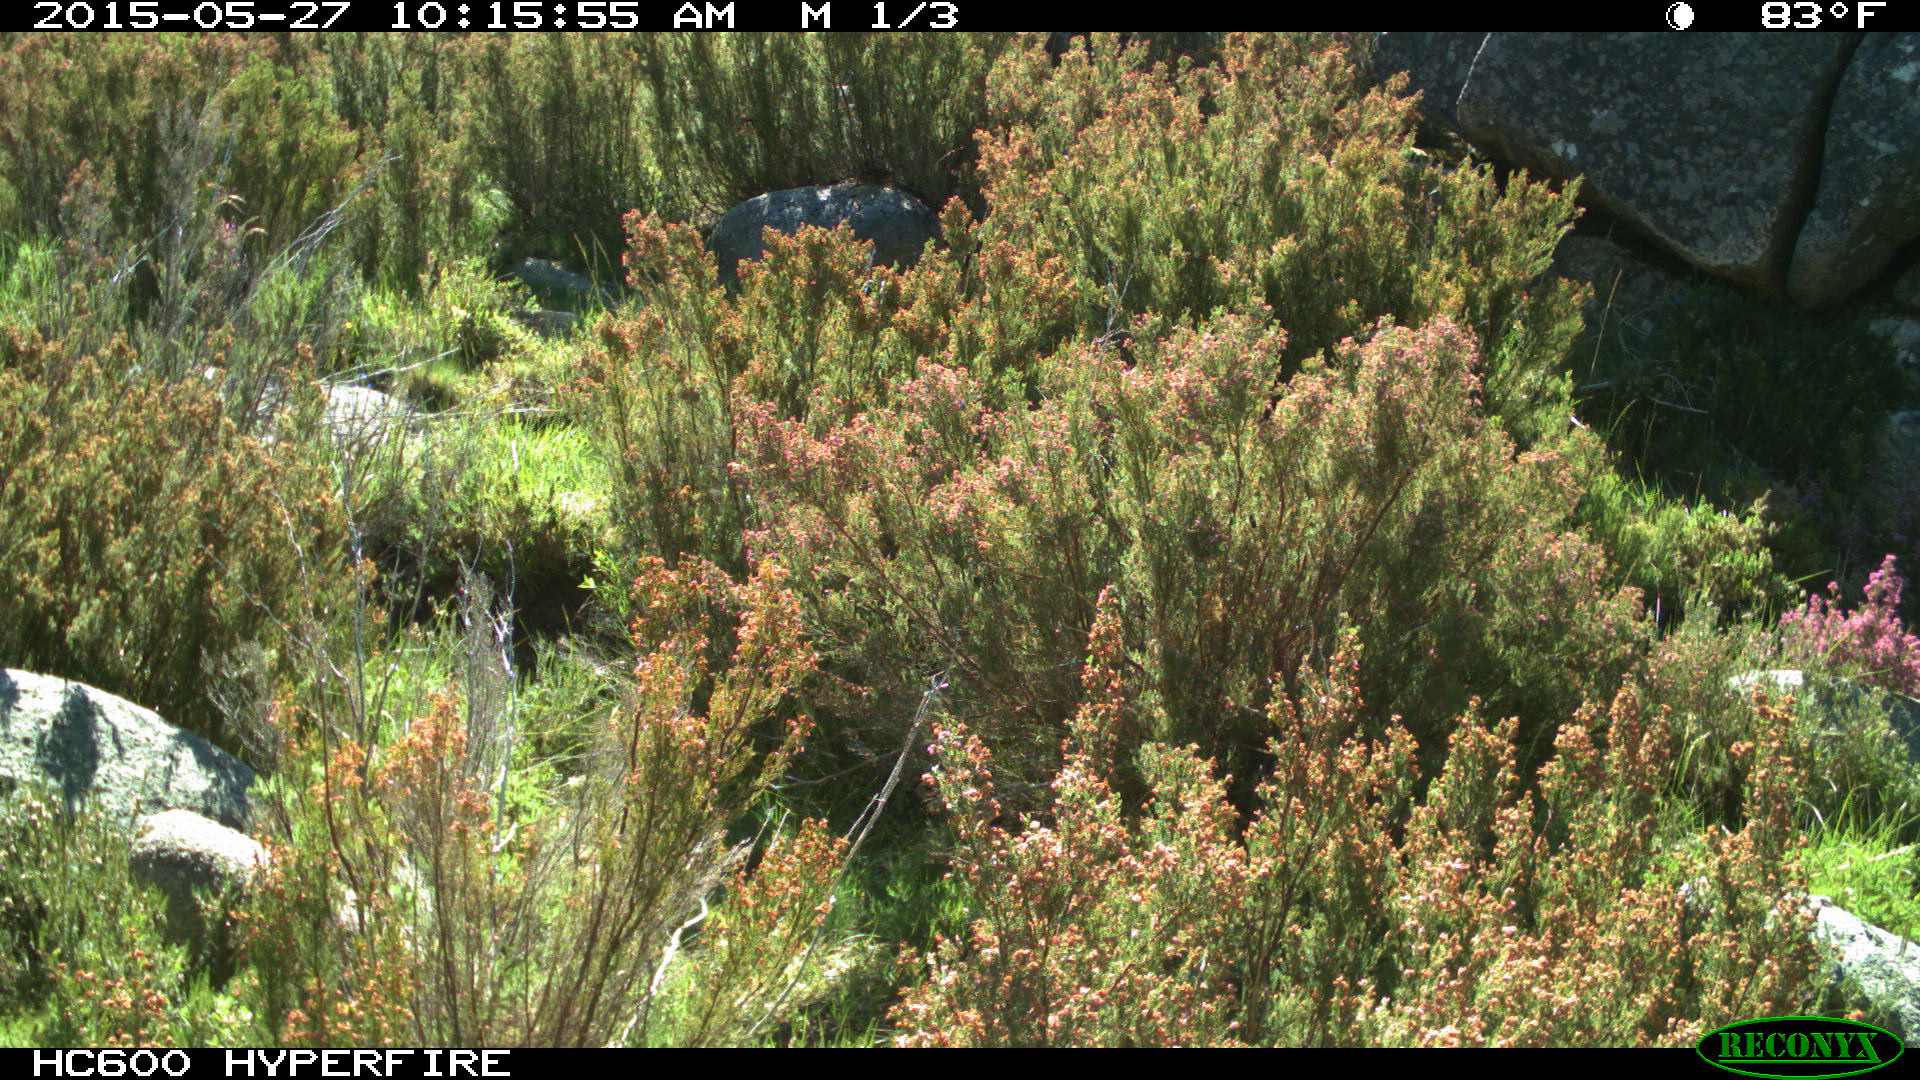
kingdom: Animalia
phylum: Chordata
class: Mammalia
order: Artiodactyla
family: Cervidae
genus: Capreolus
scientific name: Capreolus capreolus
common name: Western roe deer
